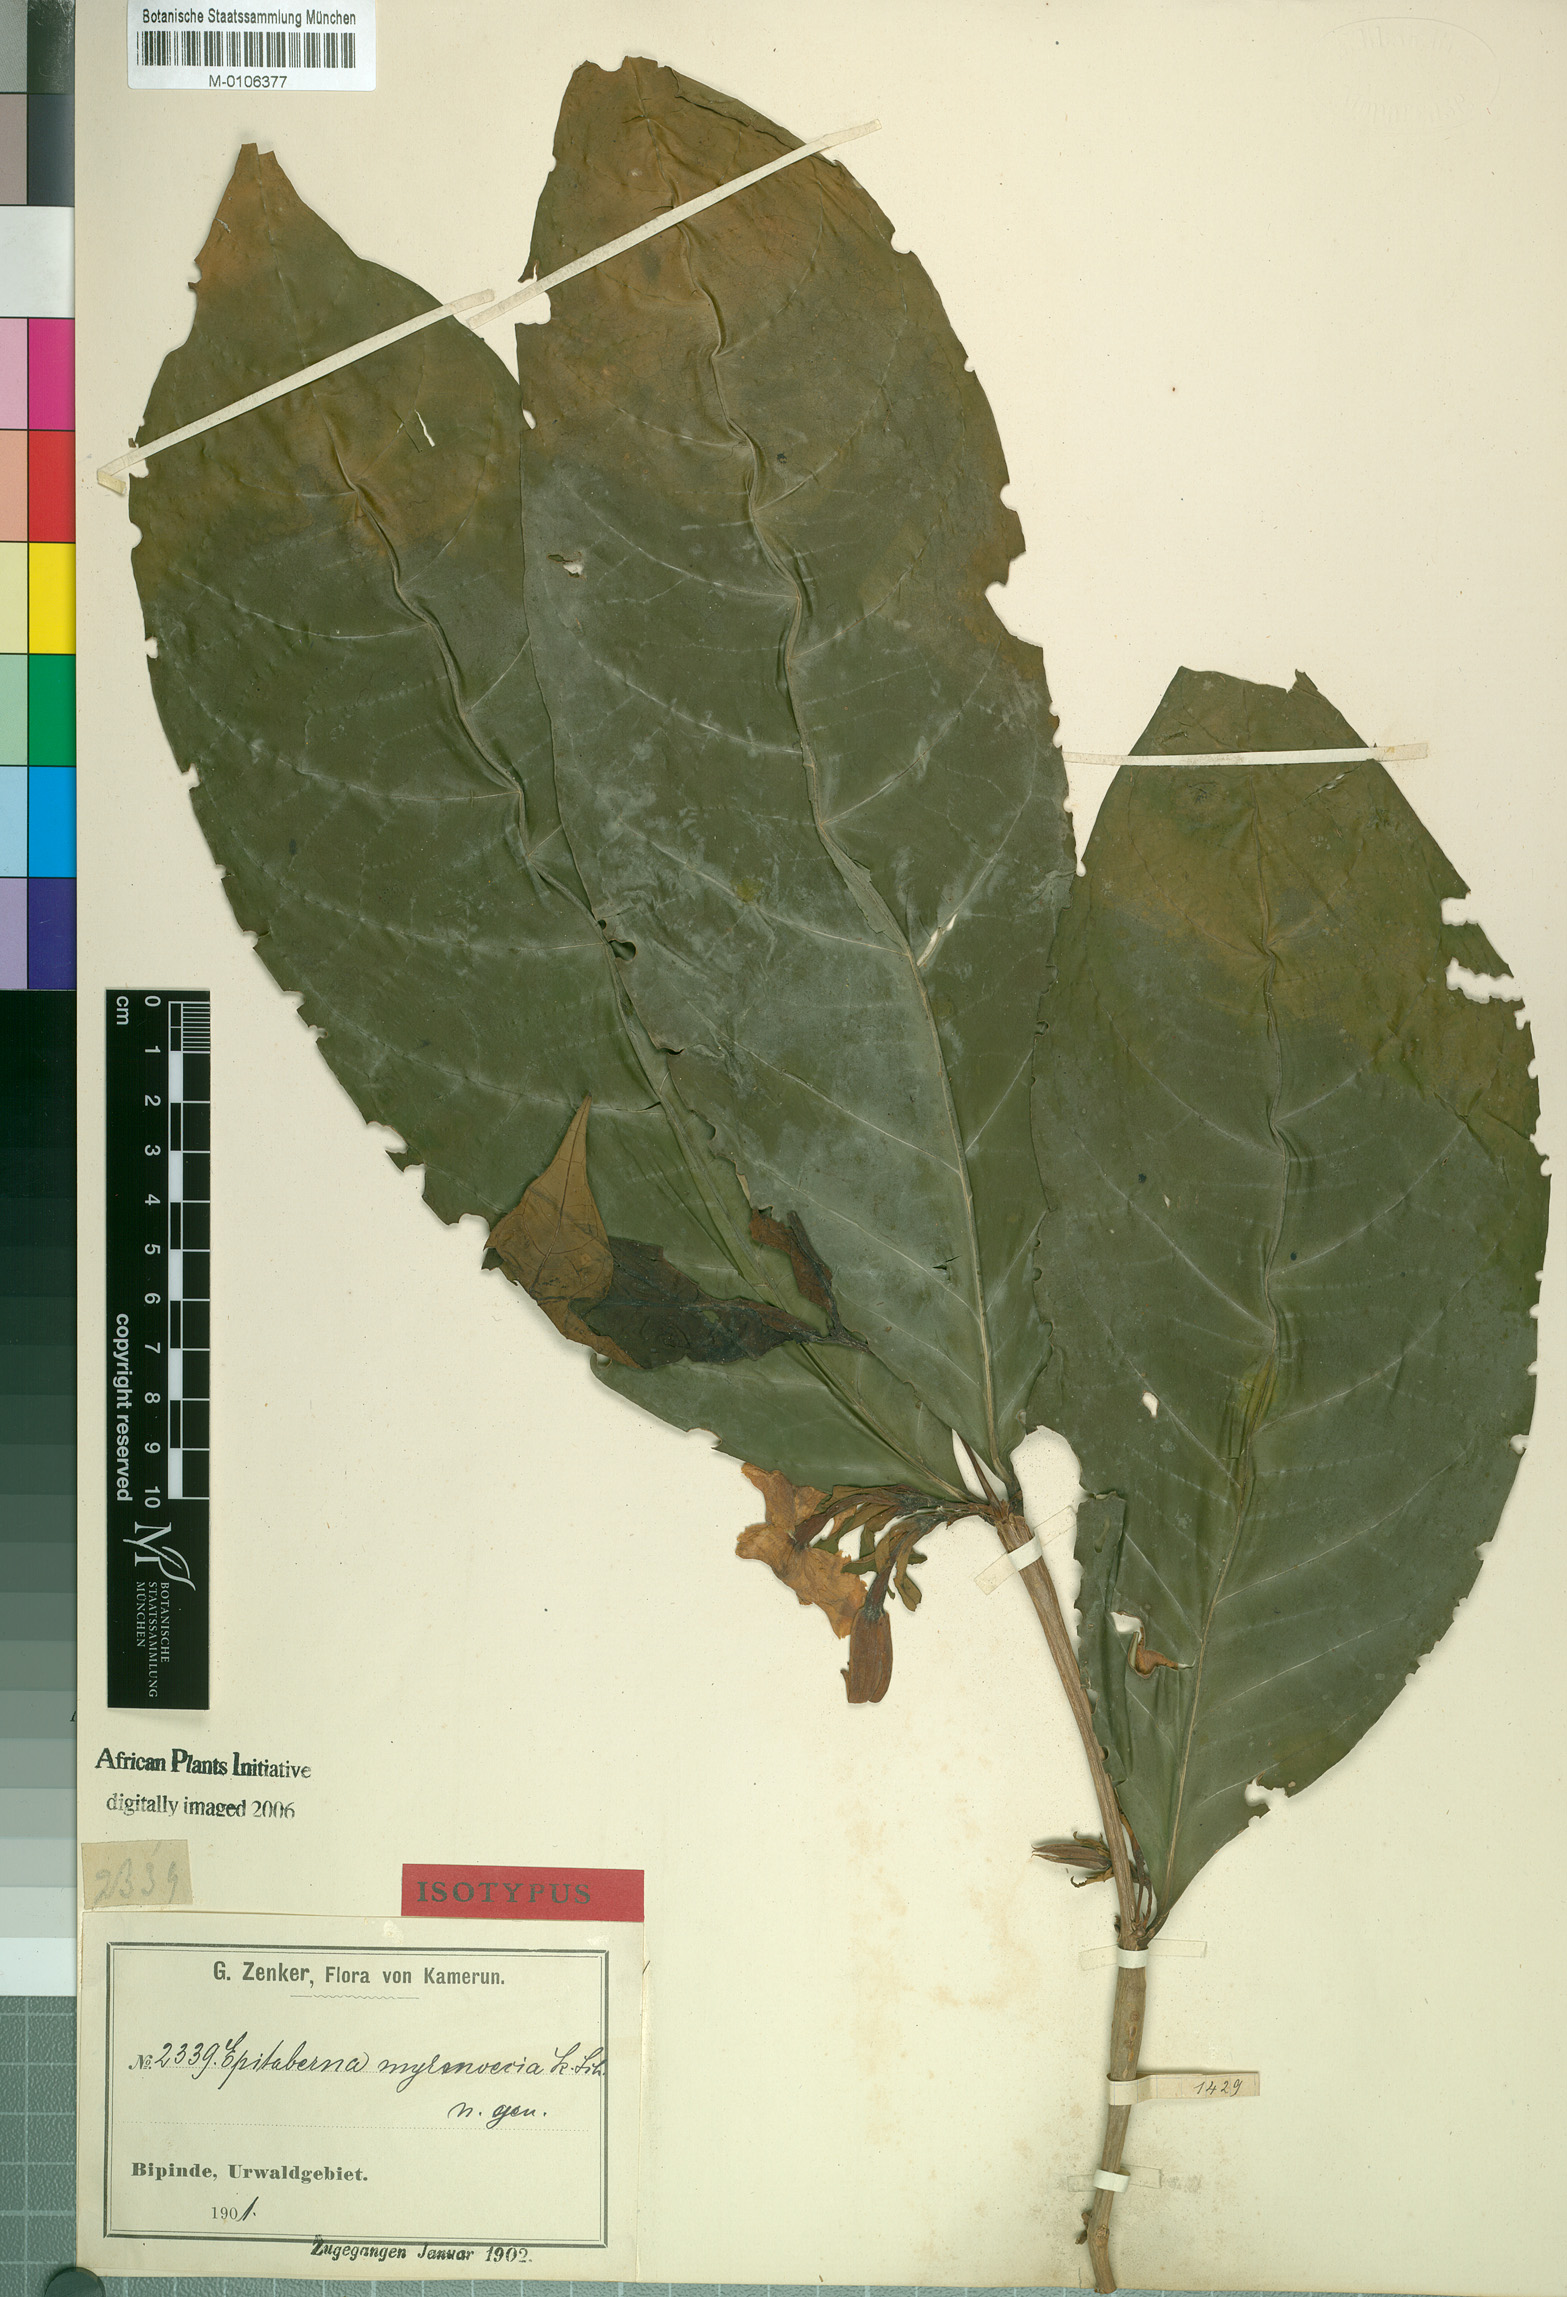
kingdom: Plantae
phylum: Tracheophyta
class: Magnoliopsida
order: Gentianales
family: Rubiaceae
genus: Heinsia
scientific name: Heinsia myrmoecia
